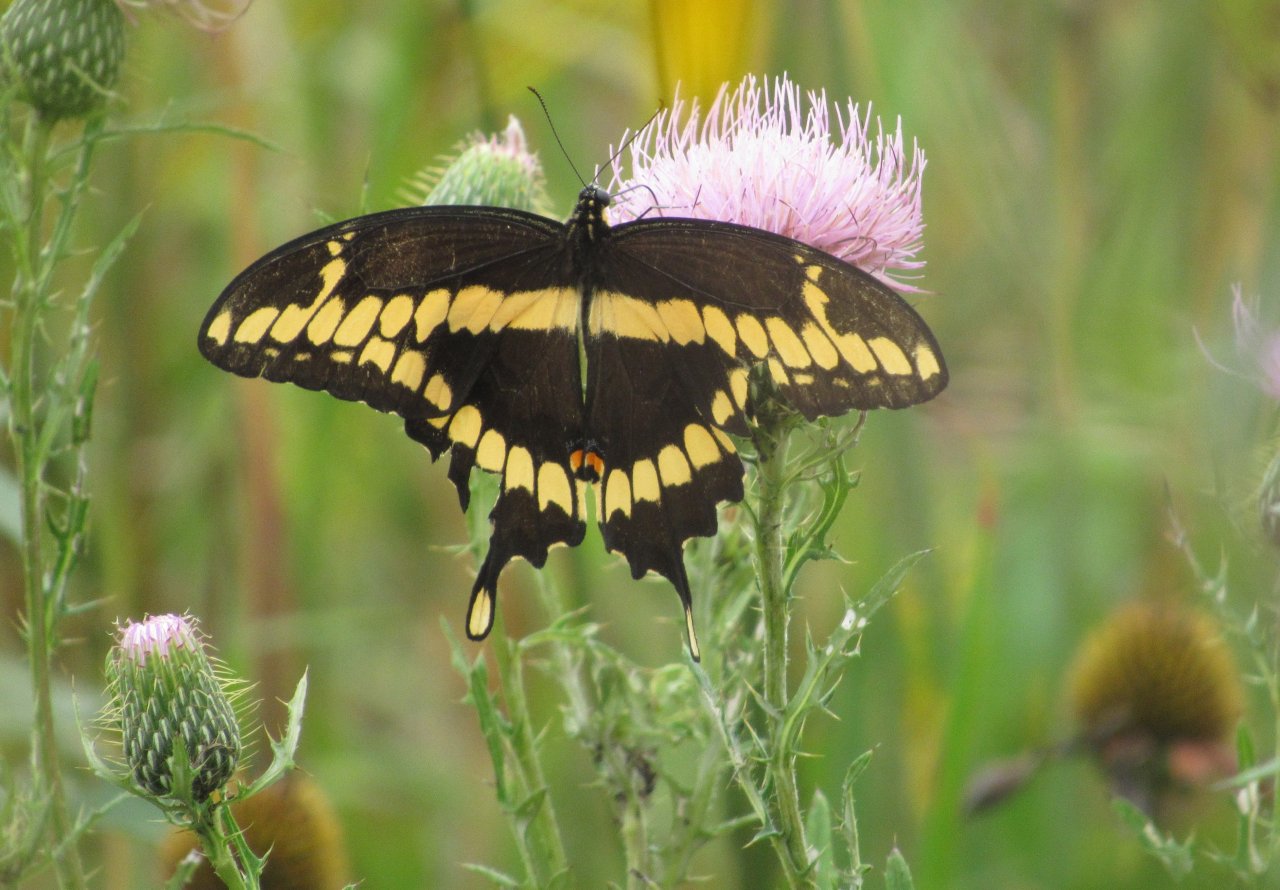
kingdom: Animalia
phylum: Arthropoda
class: Insecta
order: Lepidoptera
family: Papilionidae
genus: Papilio
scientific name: Papilio cresphontes
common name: Eastern Giant Swallowtail
